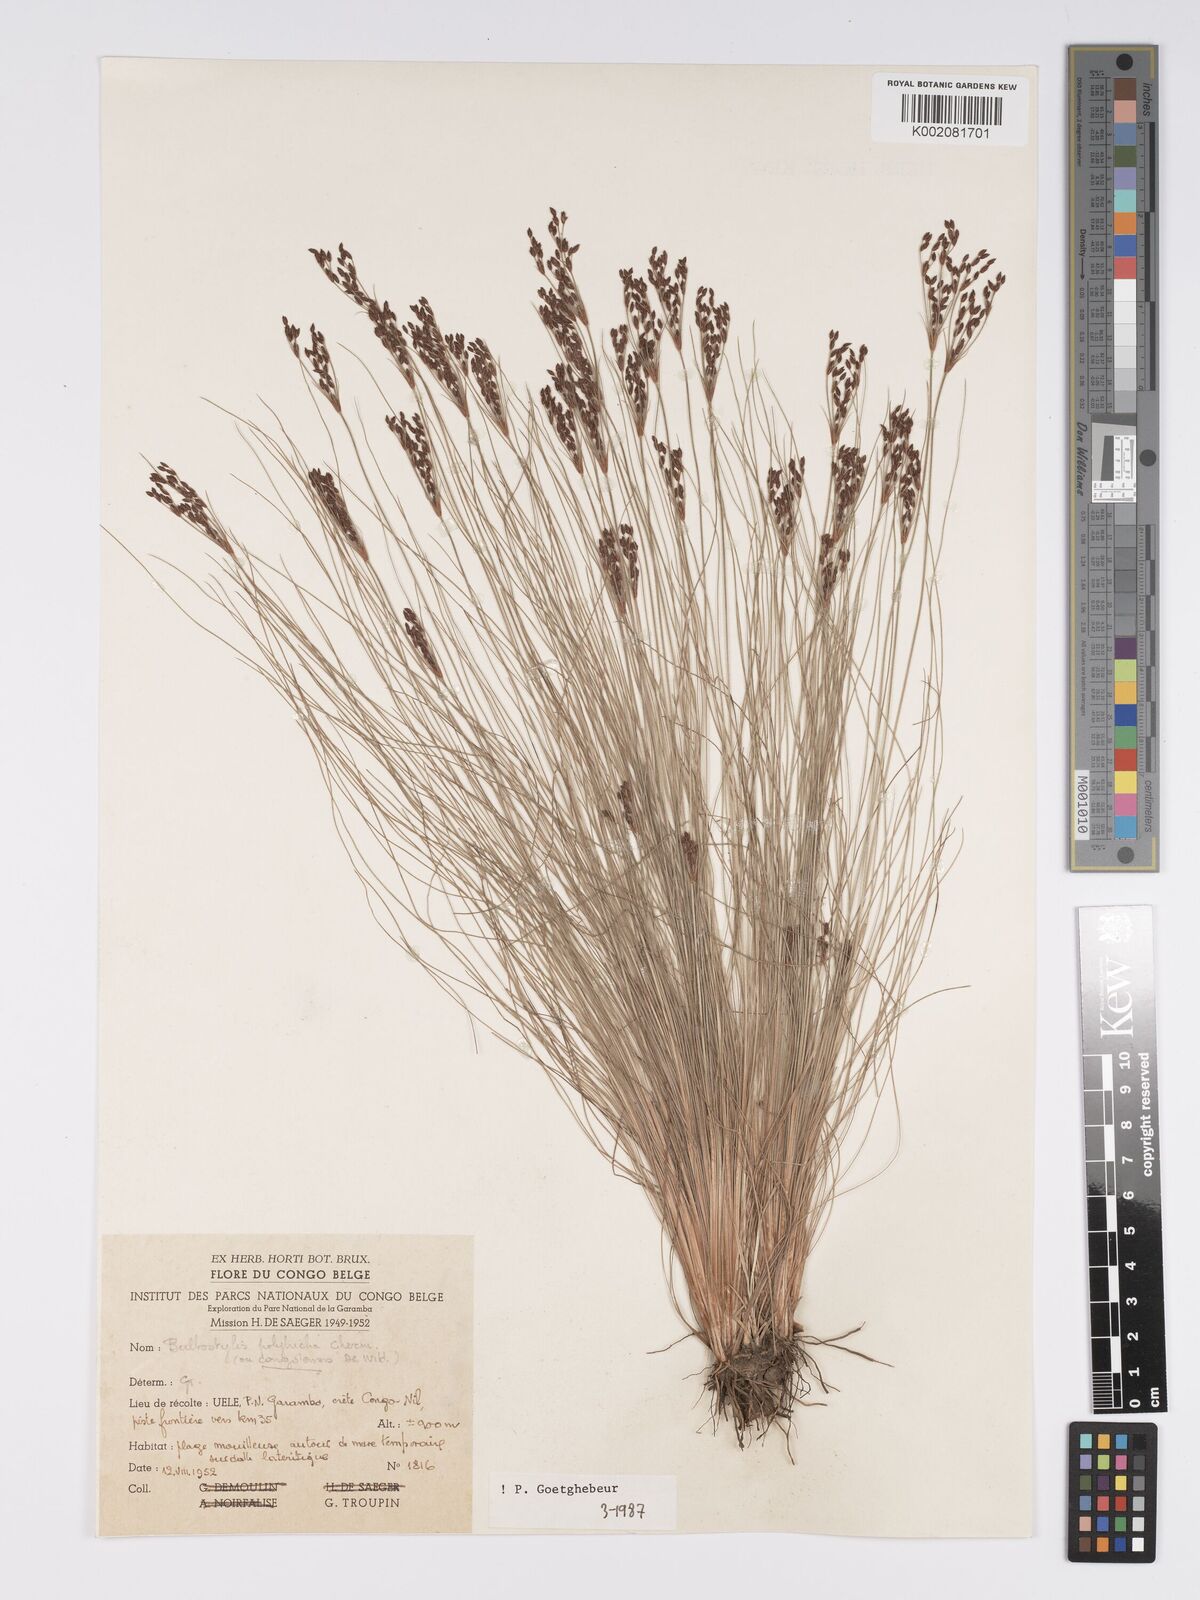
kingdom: Plantae
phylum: Tracheophyta
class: Liliopsida
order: Poales
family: Cyperaceae
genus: Bulbostylis
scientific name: Bulbostylis congolensis
